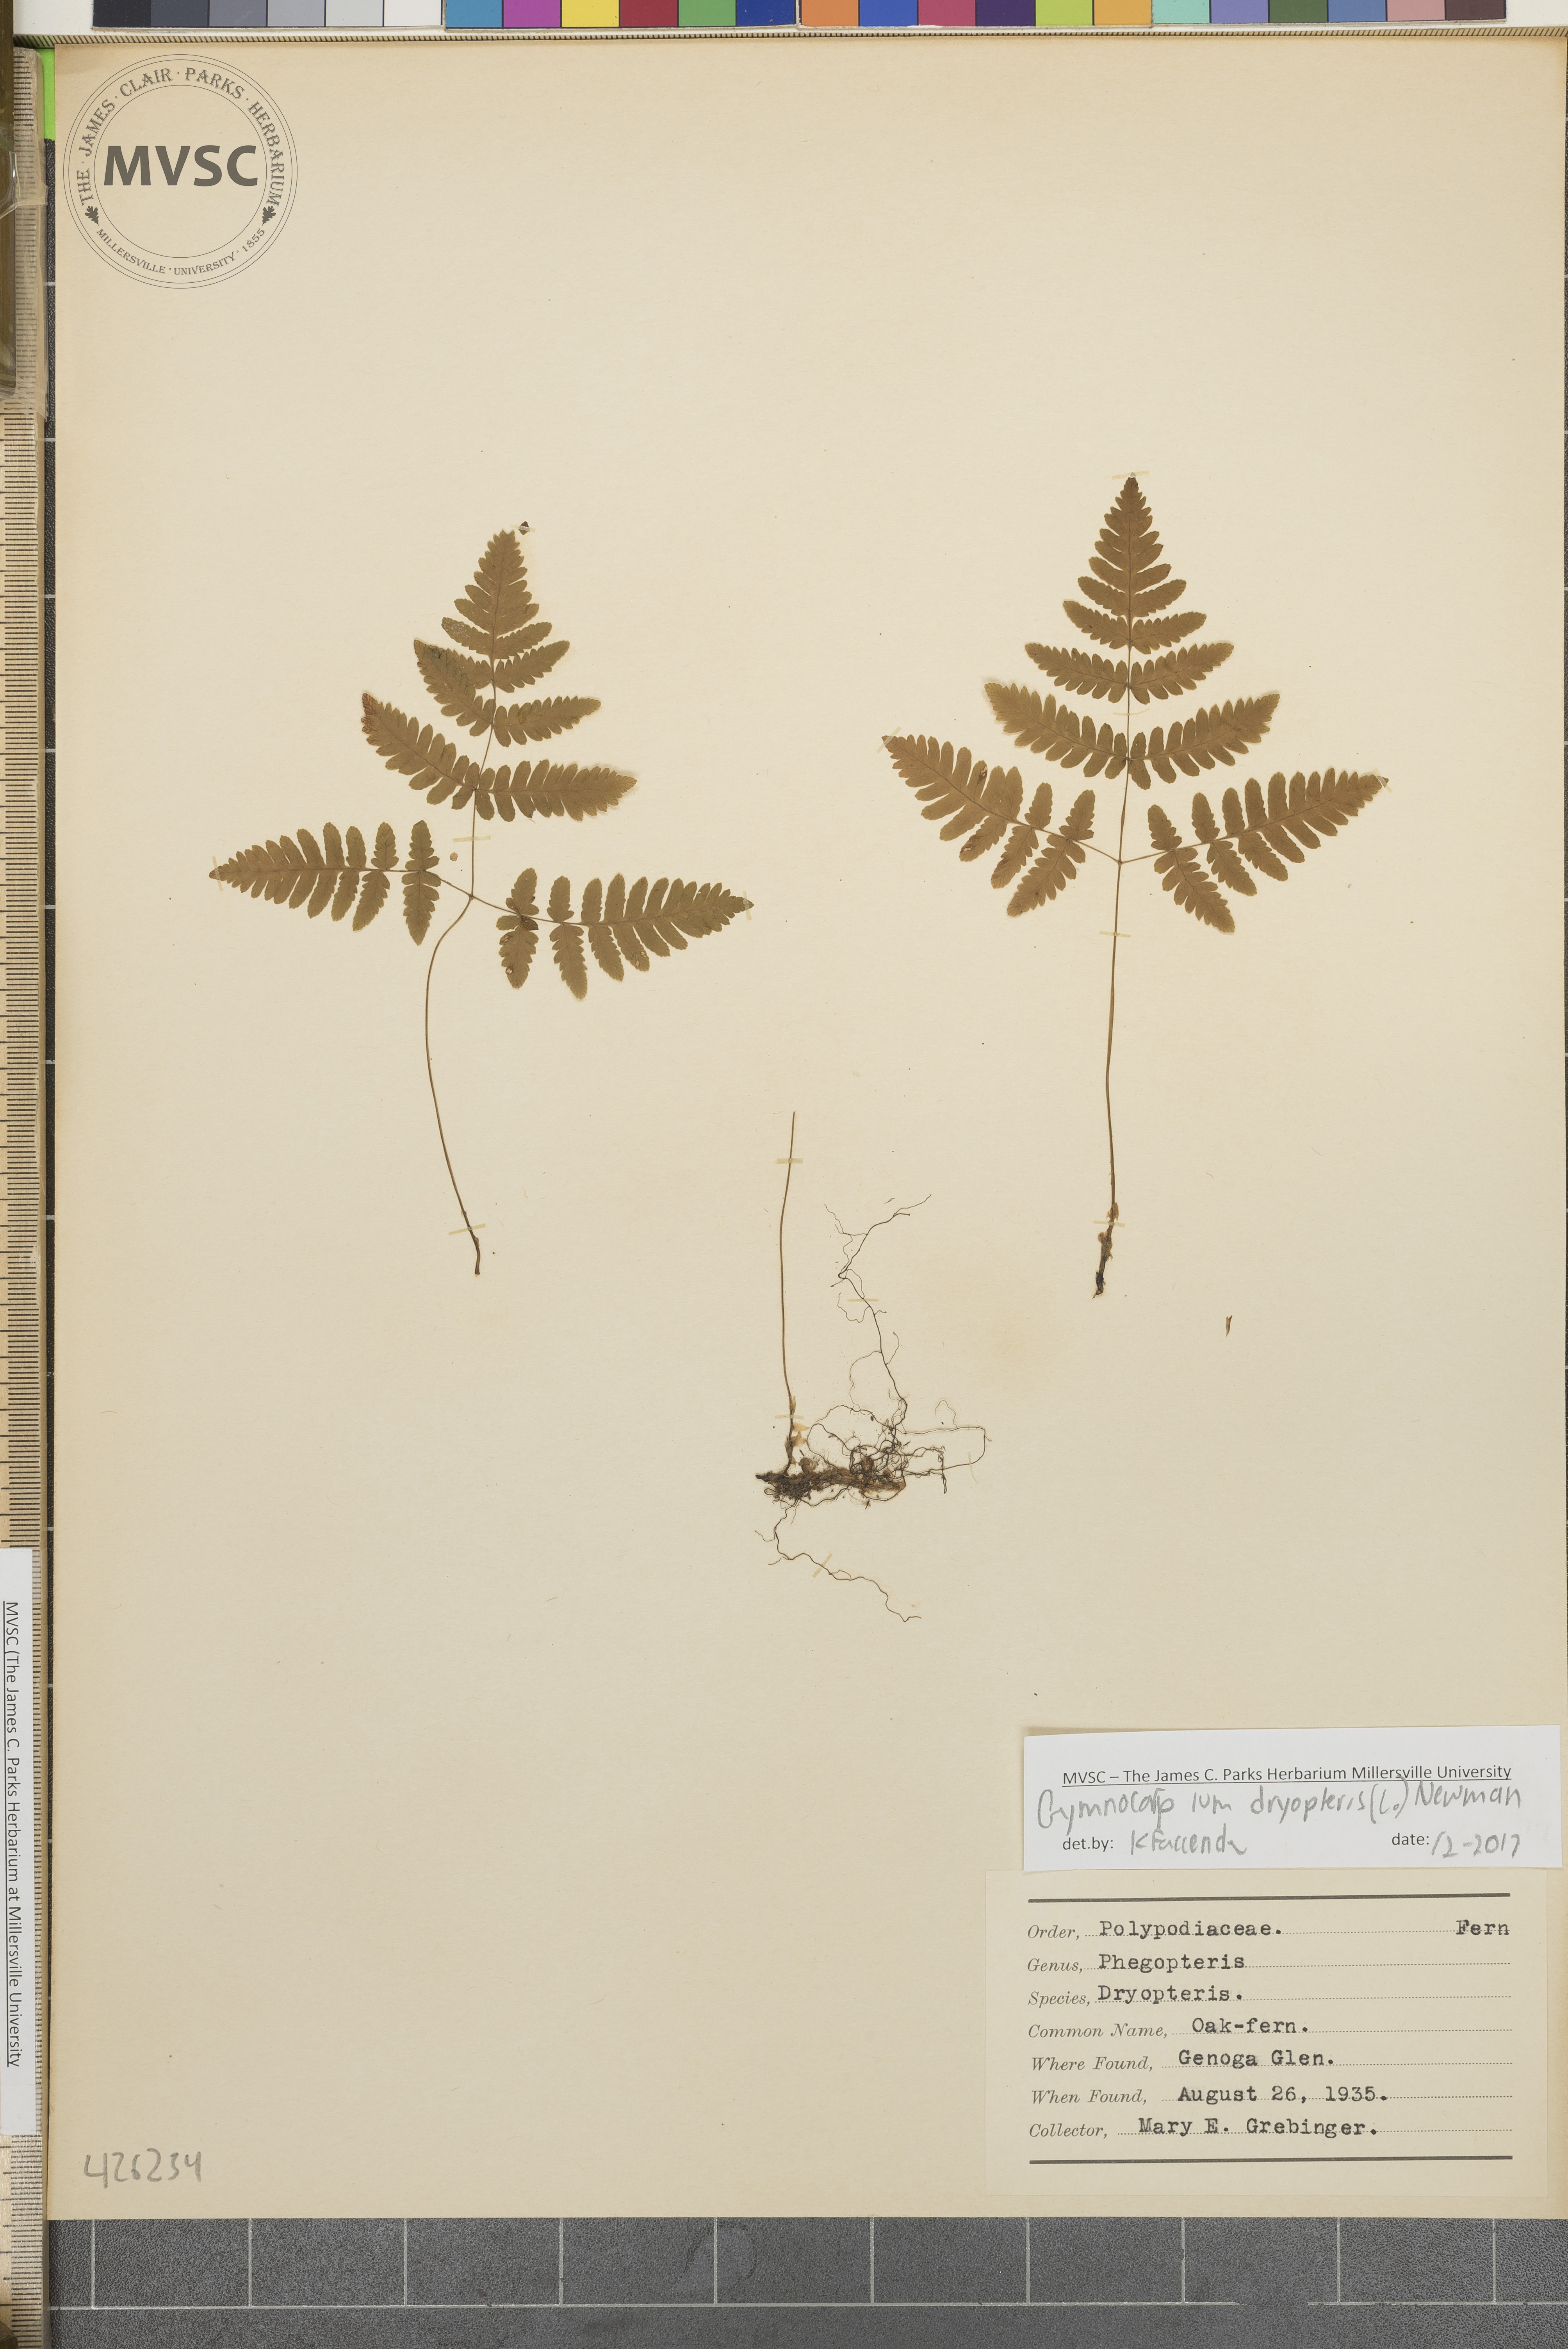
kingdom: Plantae
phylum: Tracheophyta
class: Polypodiopsida
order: Polypodiales
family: Cystopteridaceae
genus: Gymnocarpium
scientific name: Gymnocarpium dryopteris
